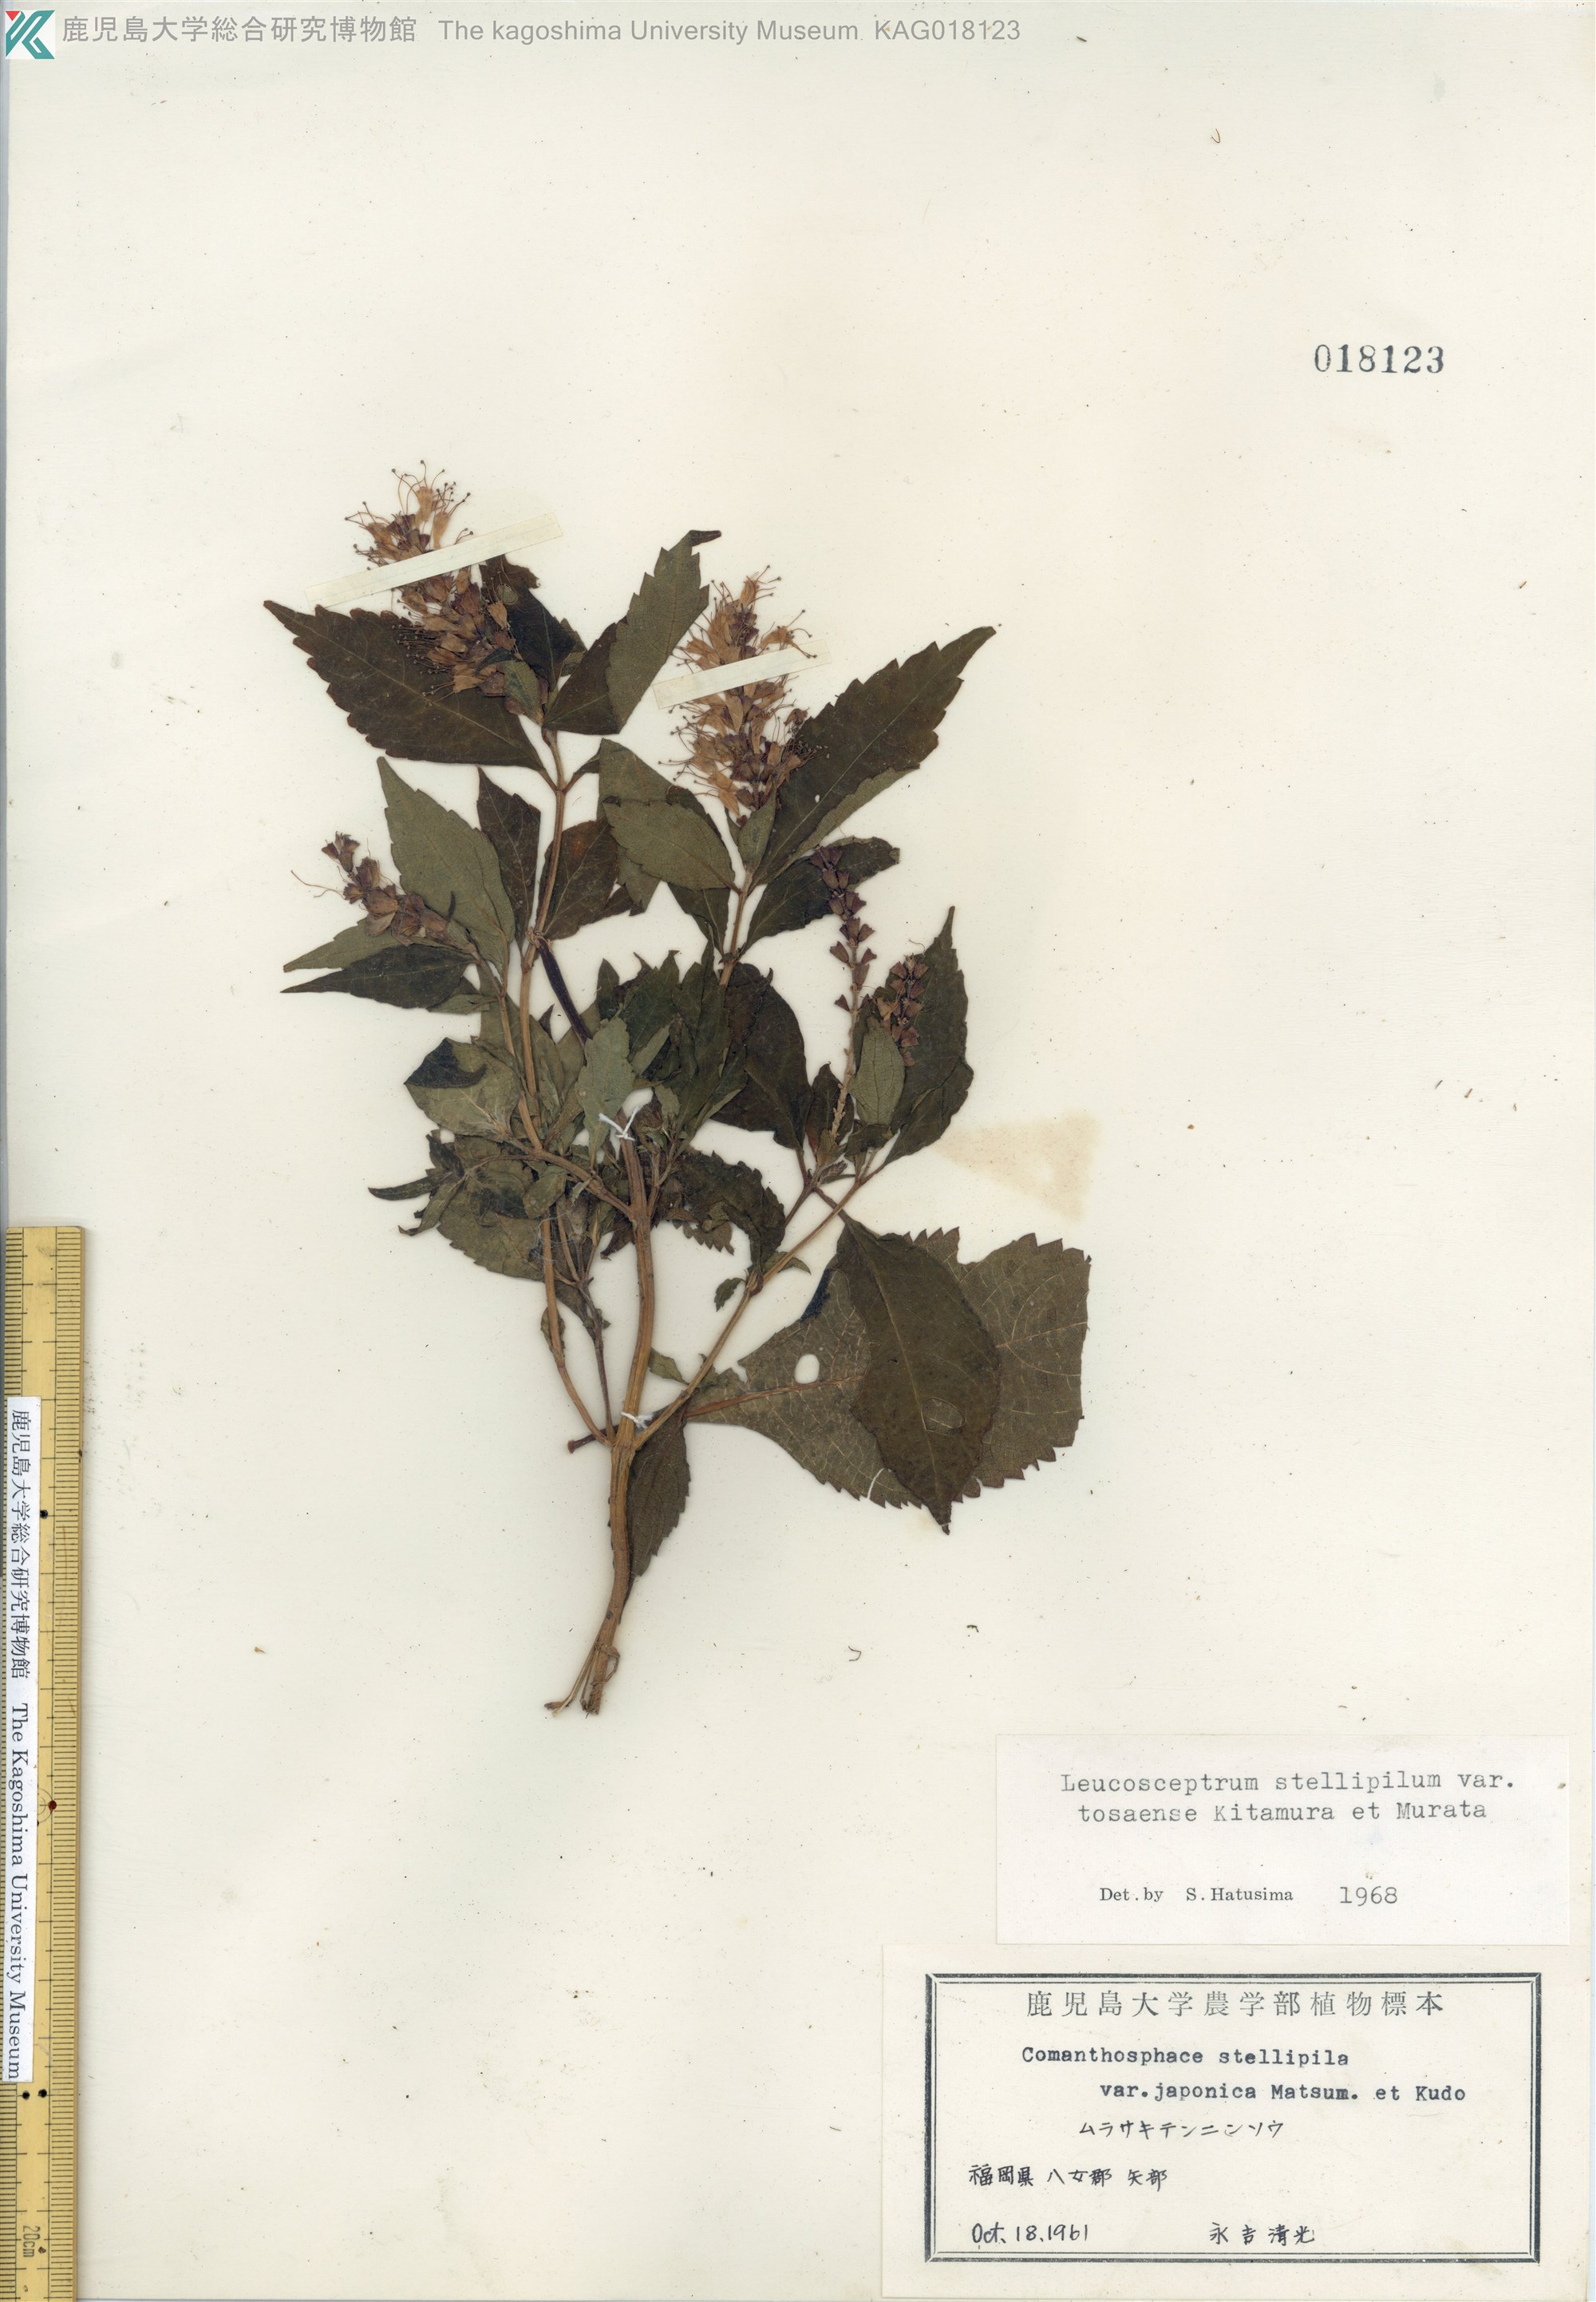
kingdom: Plantae
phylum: Tracheophyta
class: Magnoliopsida
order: Lamiales
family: Lamiaceae
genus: Comanthosphace
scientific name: Comanthosphace japonica
